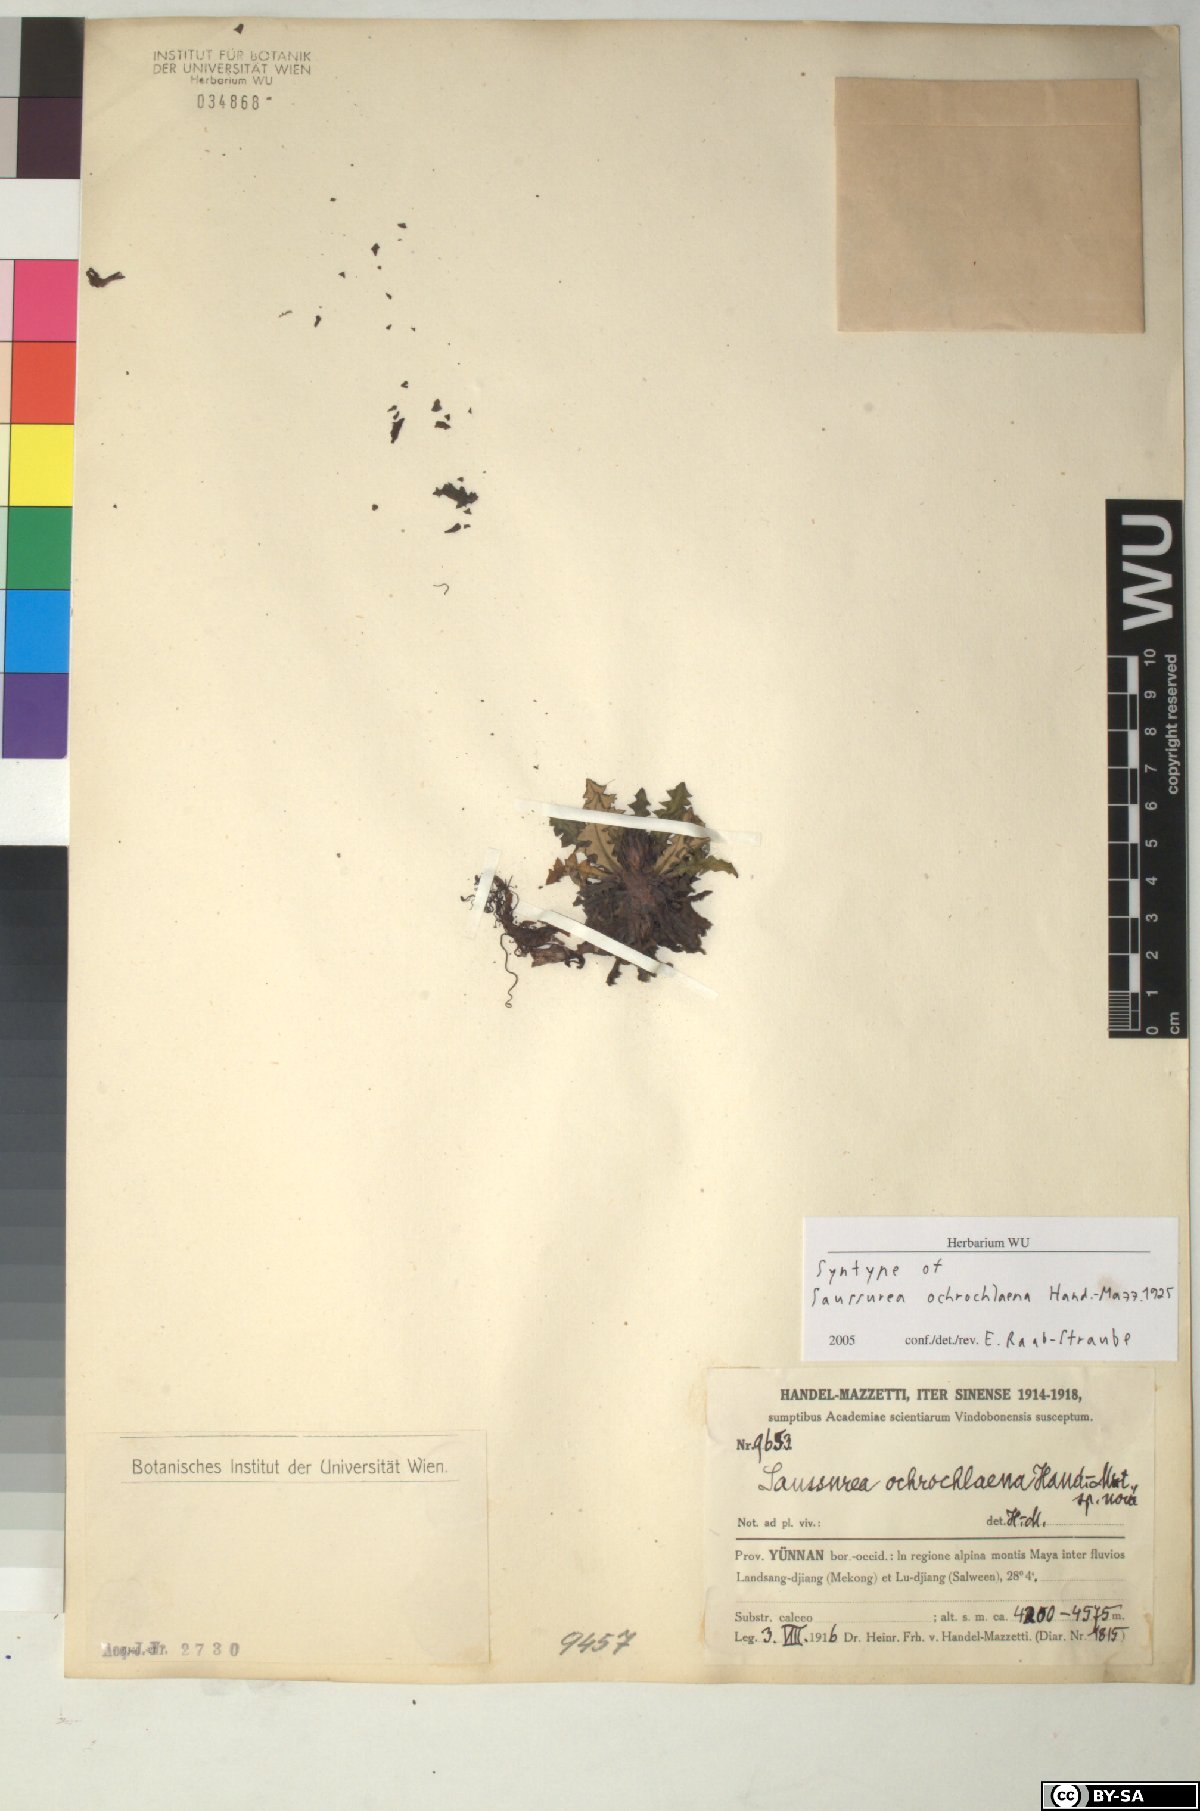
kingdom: Plantae
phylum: Tracheophyta
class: Magnoliopsida
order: Asterales
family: Asteraceae
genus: Saussurea
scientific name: Saussurea salwinensis
